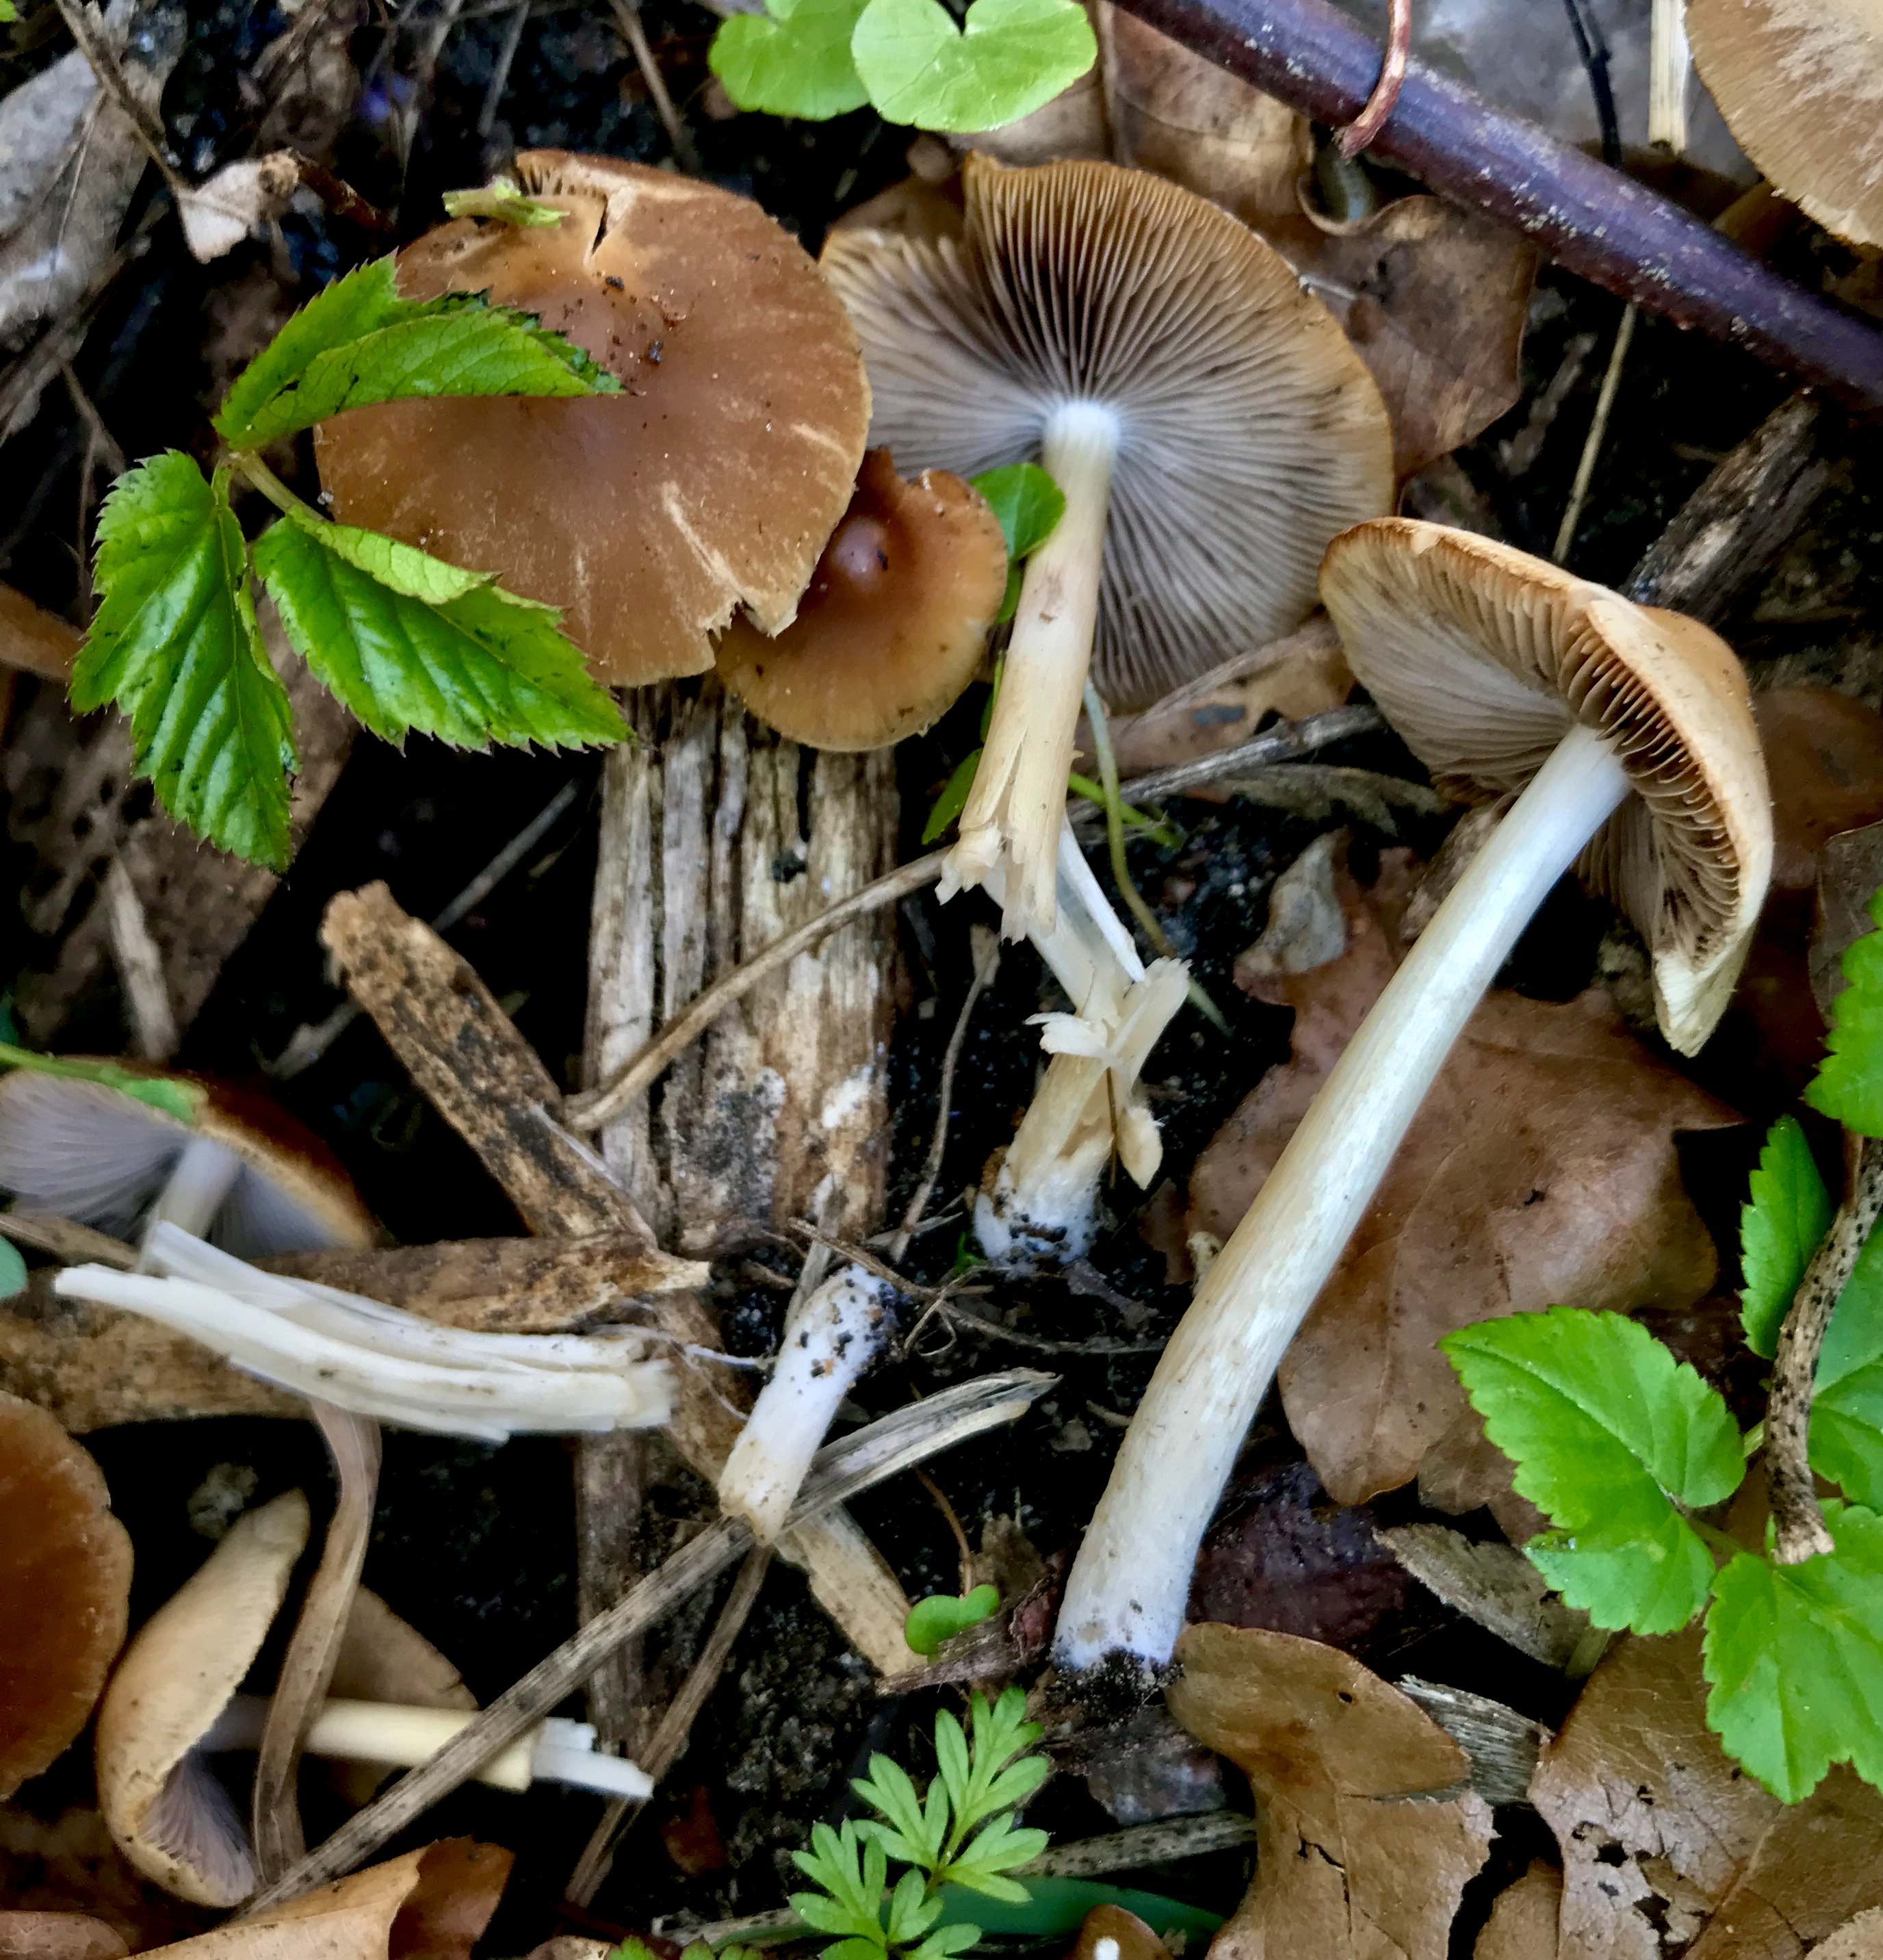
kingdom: Fungi
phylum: Basidiomycota
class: Agaricomycetes
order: Agaricales
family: Psathyrellaceae
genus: Psathyrella
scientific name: Psathyrella spadiceogrisea
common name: gråbrun mørkhat
